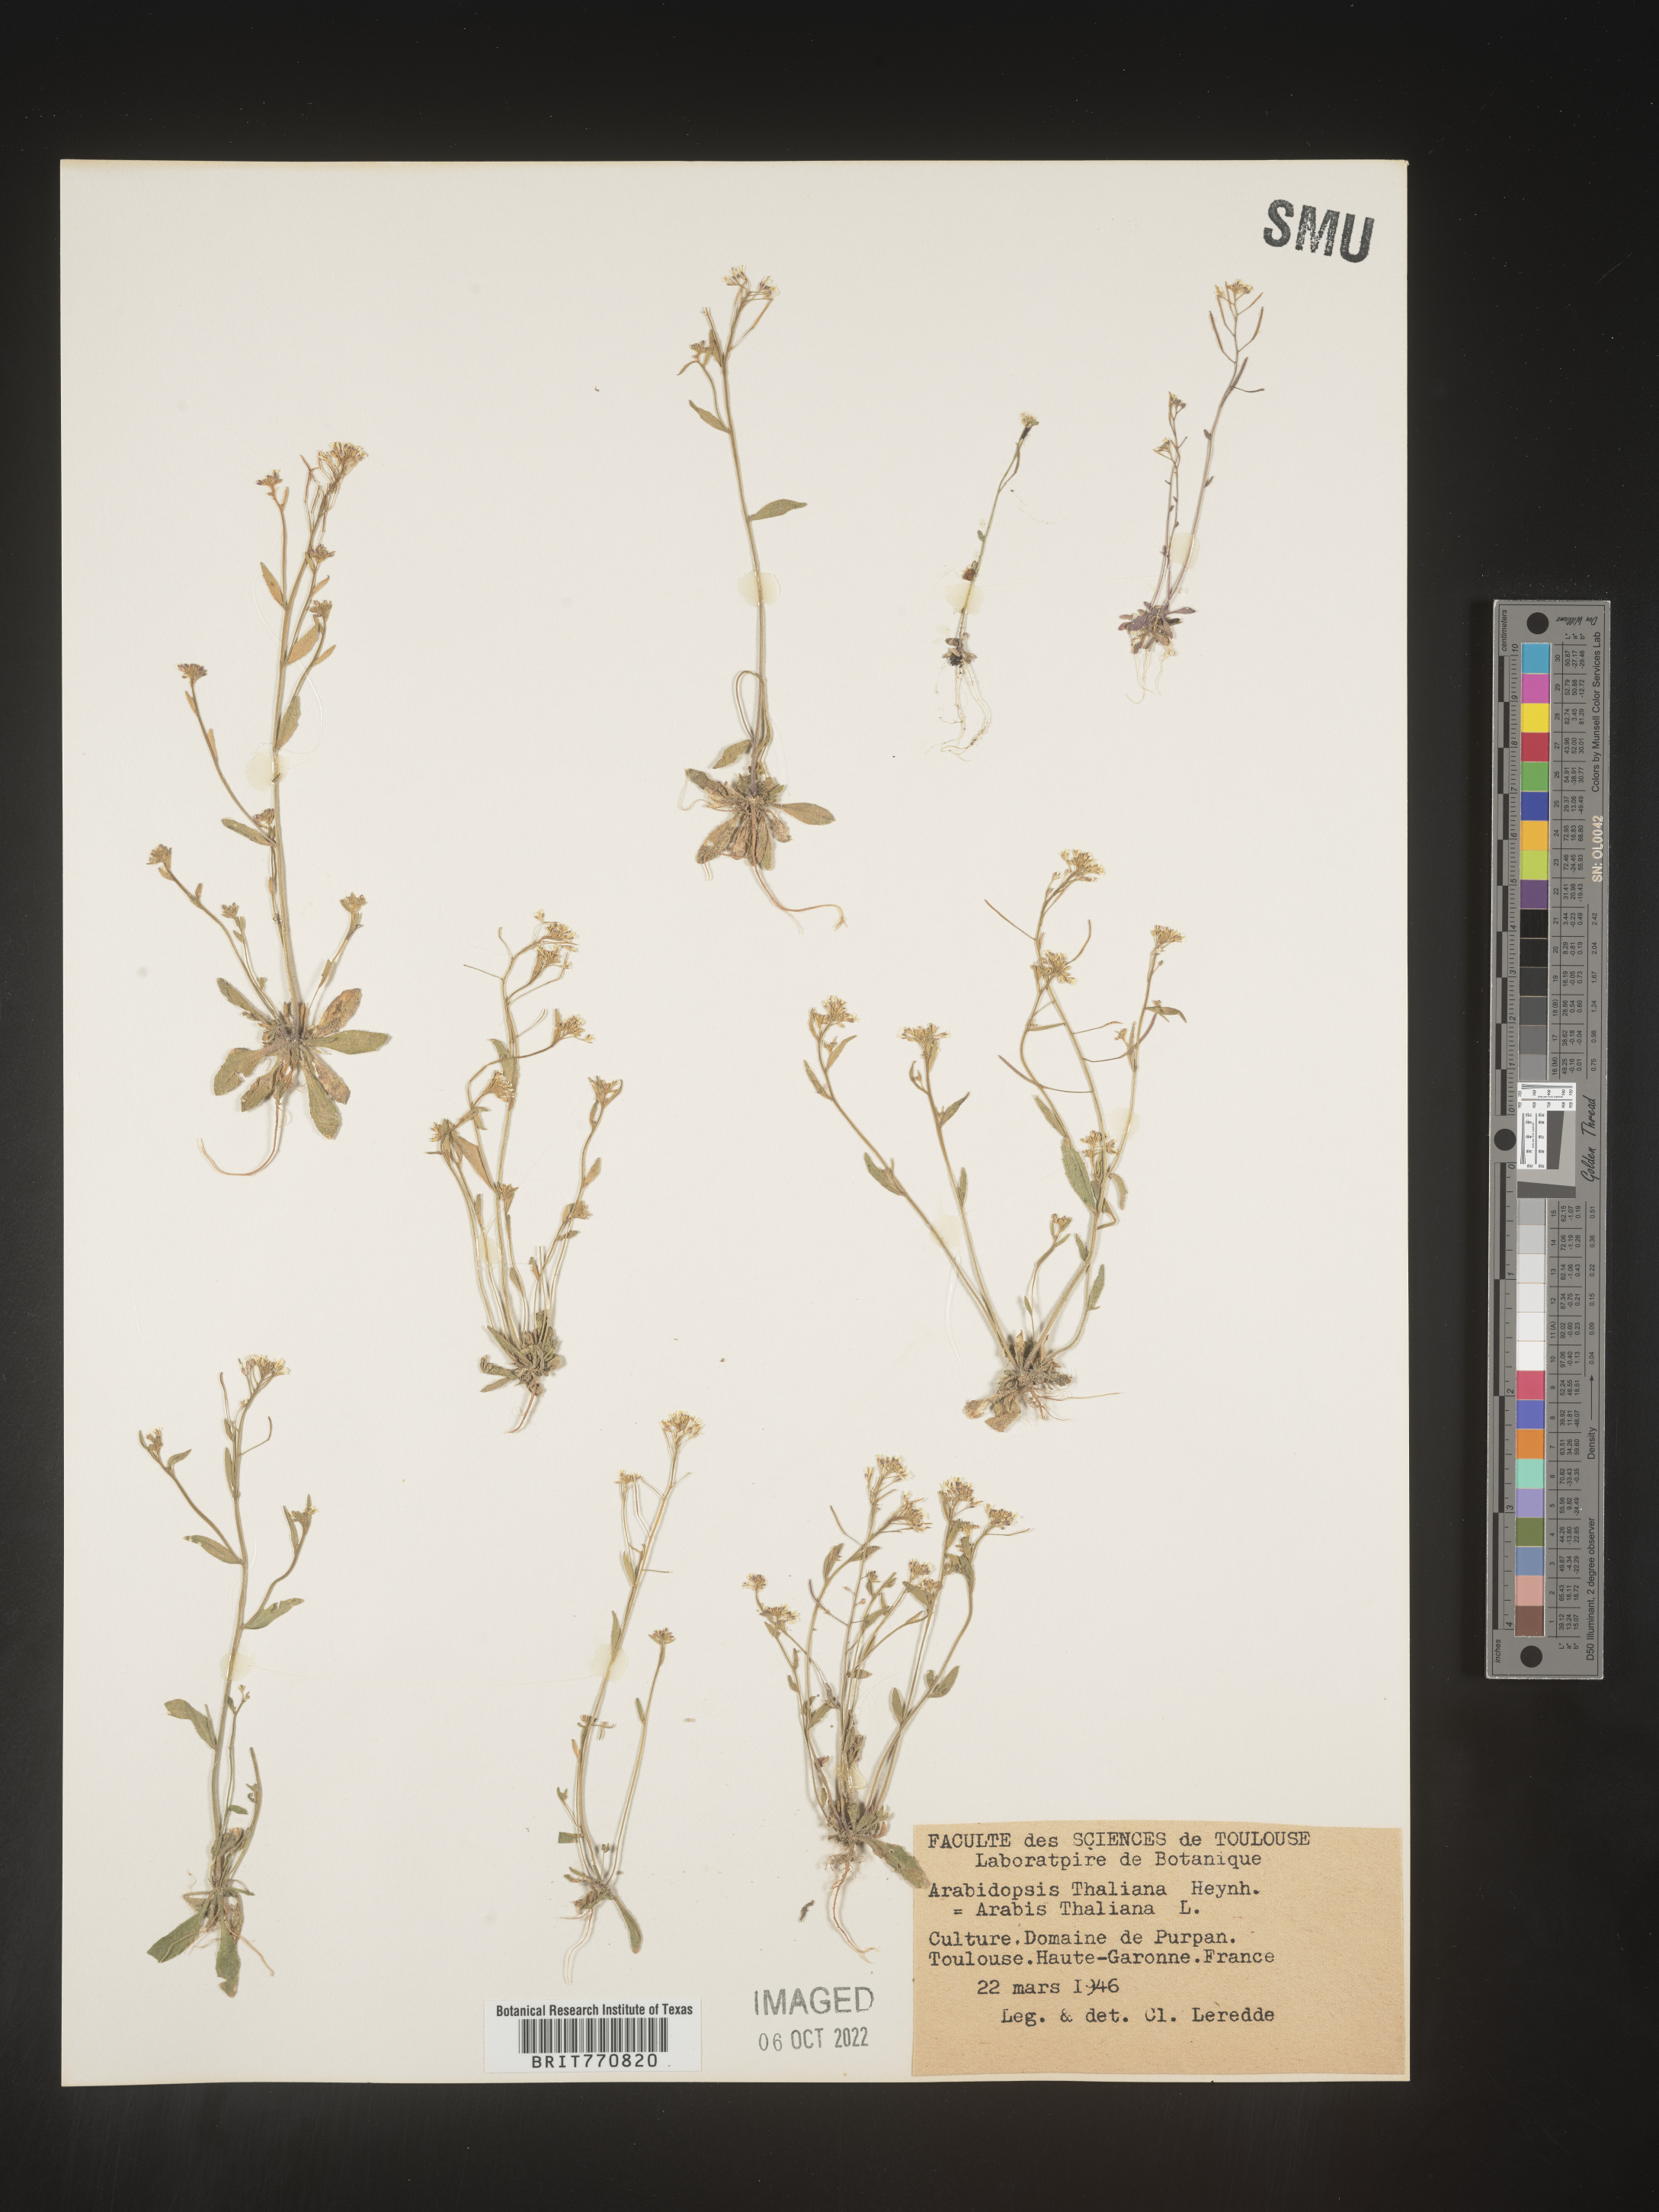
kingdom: Plantae
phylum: Tracheophyta
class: Magnoliopsida
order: Brassicales
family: Brassicaceae
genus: Arabidopsis
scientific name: Arabidopsis
